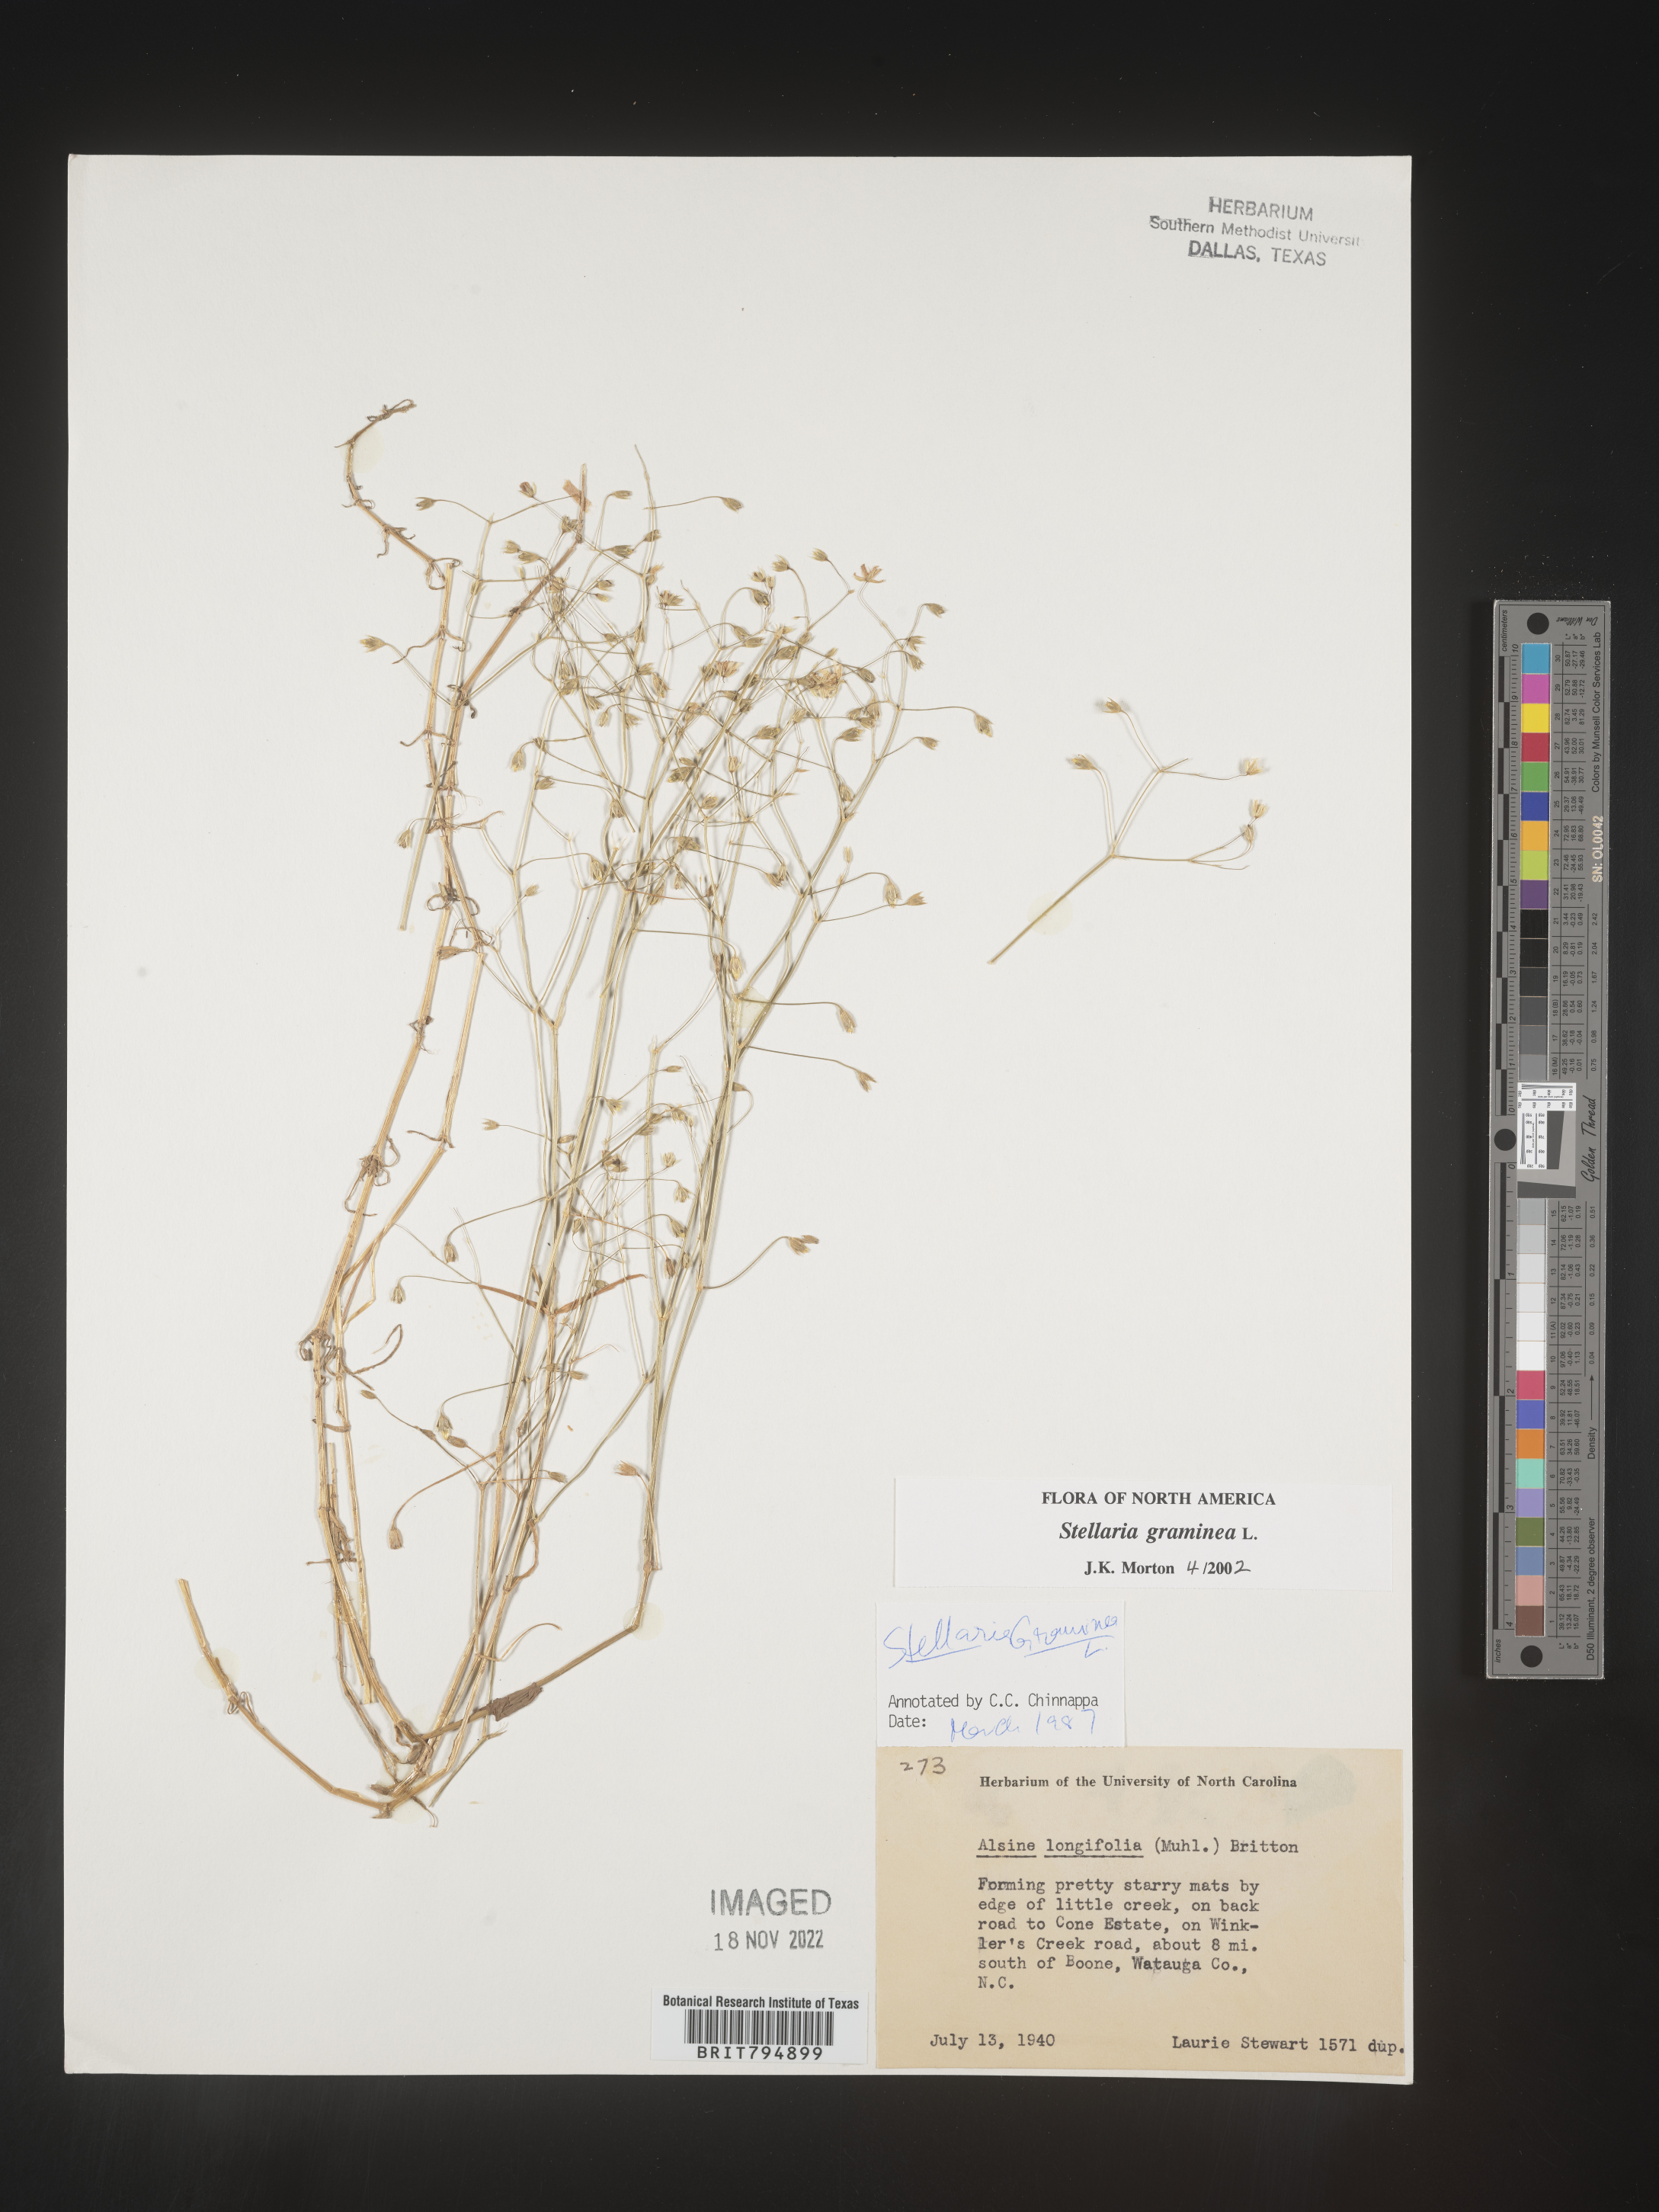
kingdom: Plantae
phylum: Tracheophyta
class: Magnoliopsida
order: Caryophyllales
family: Caryophyllaceae
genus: Stellaria
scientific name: Stellaria graminea
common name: Grass-like starwort
